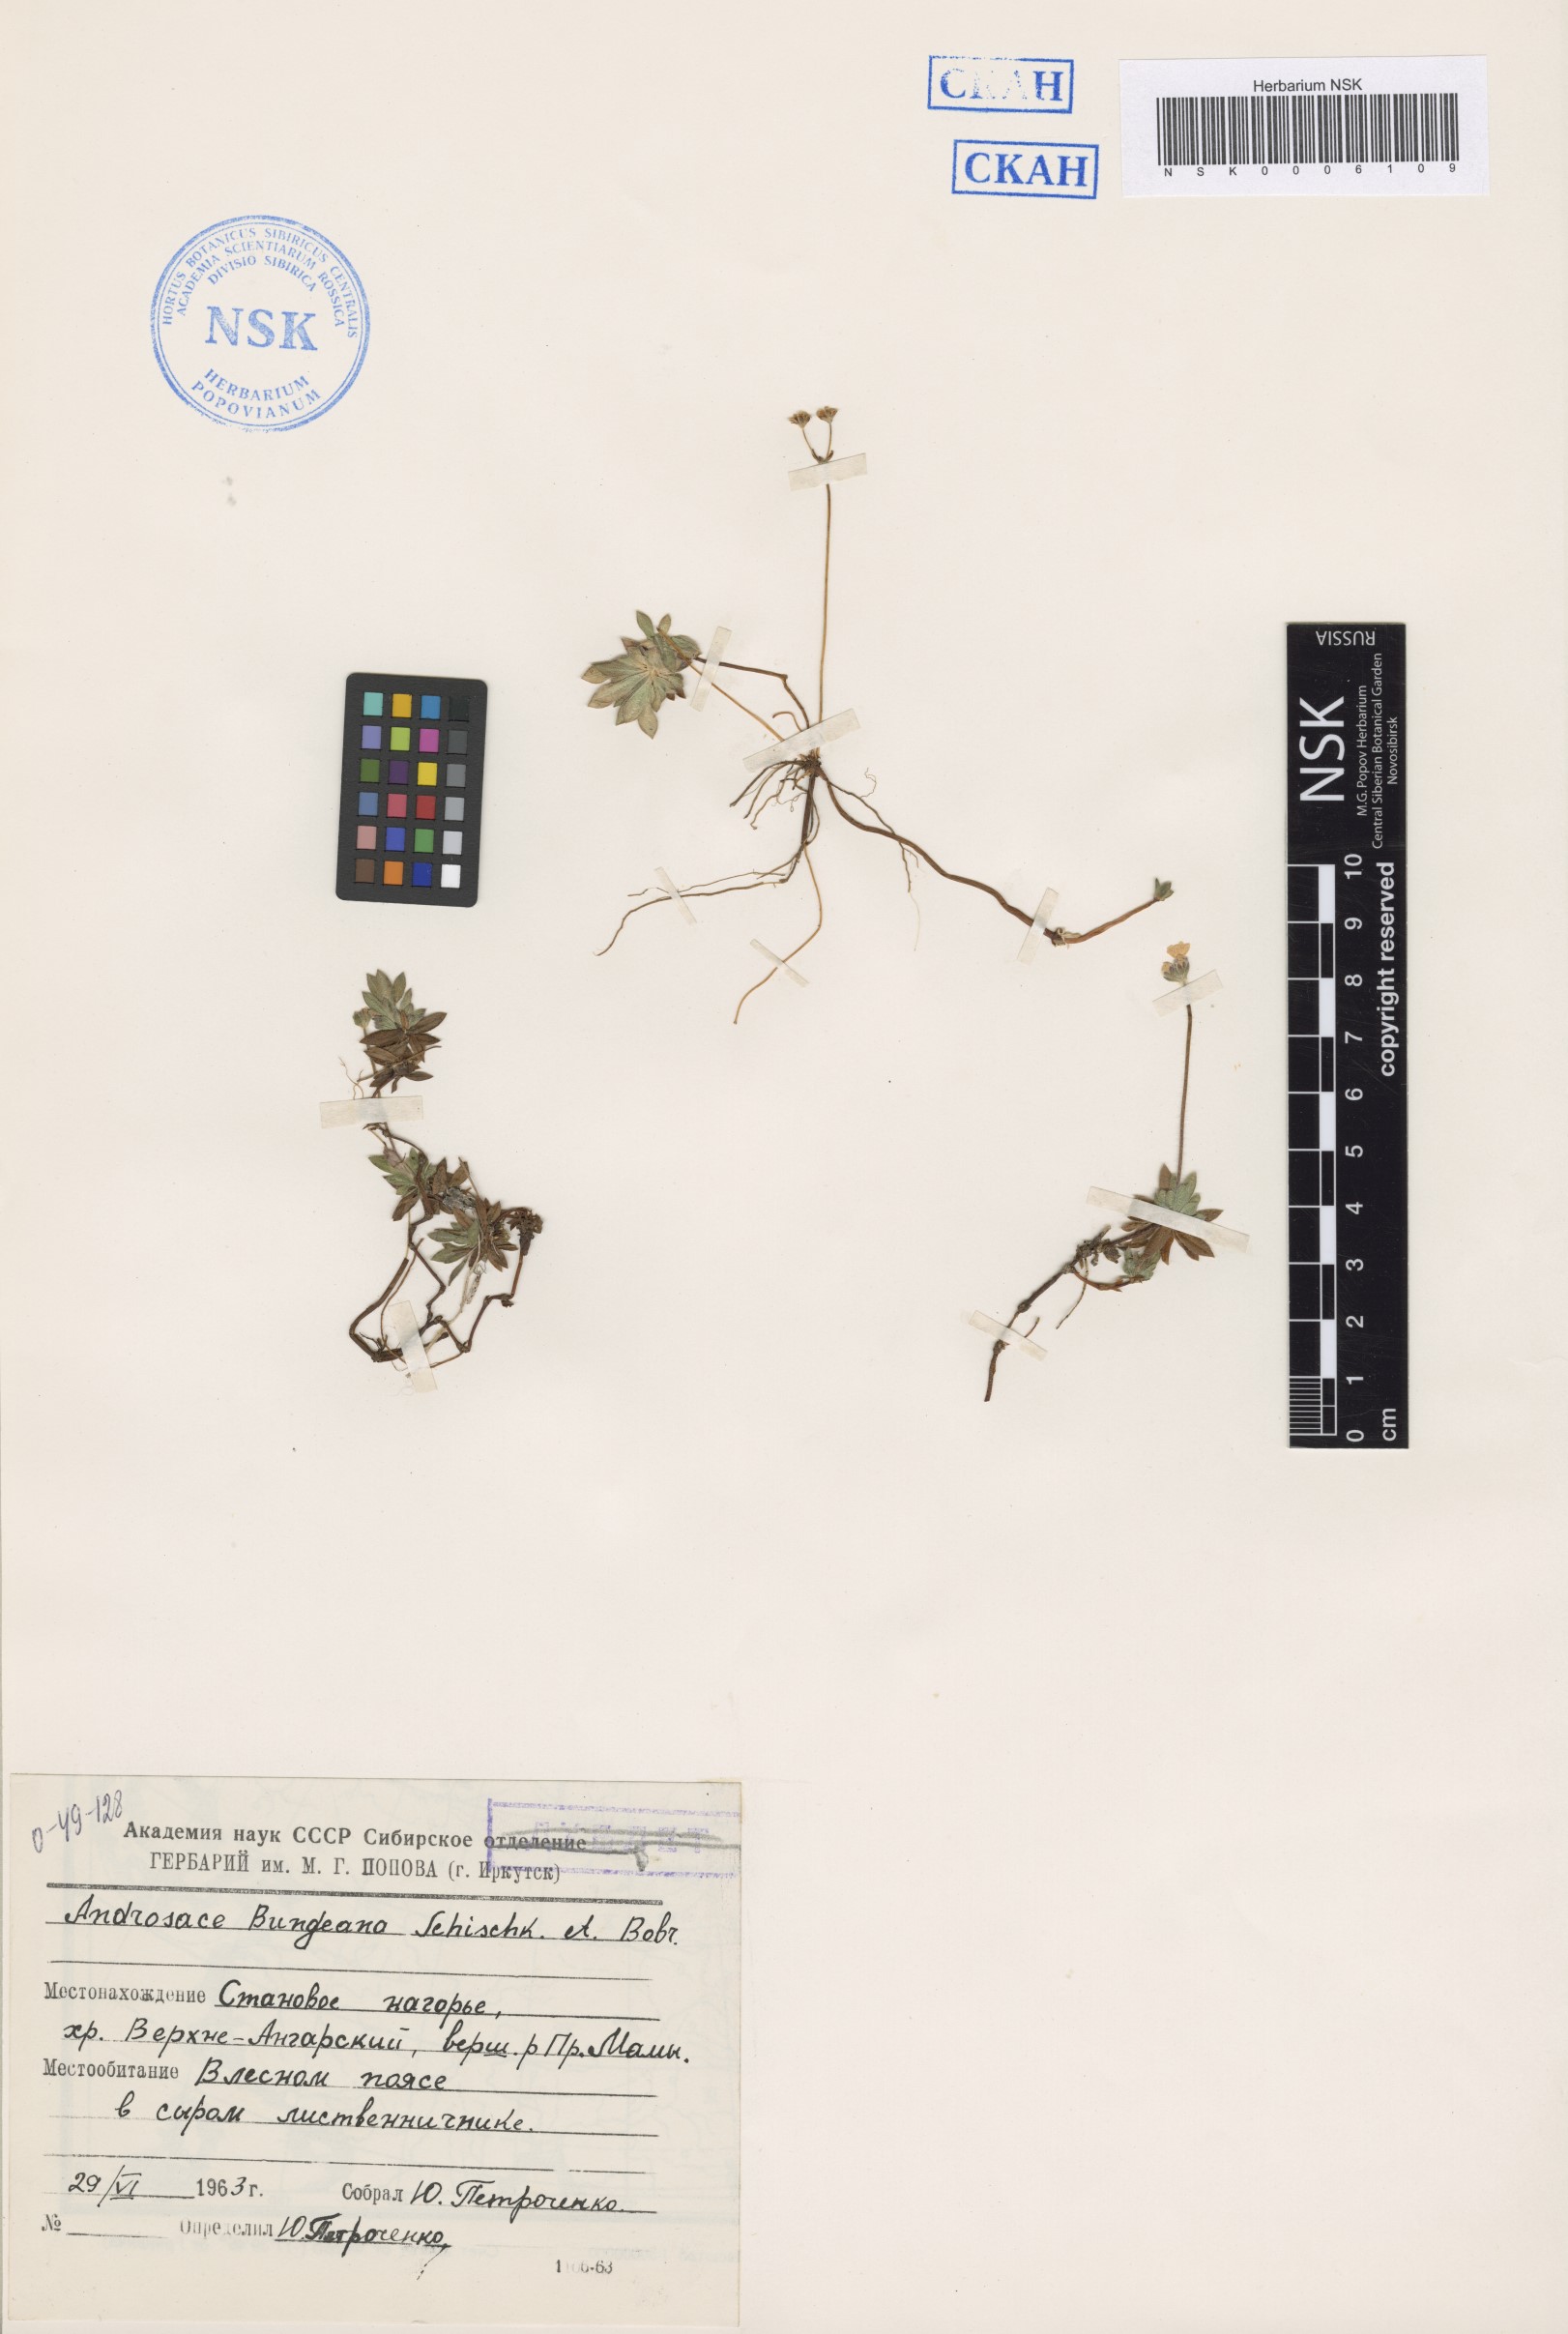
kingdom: Plantae
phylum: Tracheophyta
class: Magnoliopsida
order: Ericales
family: Primulaceae
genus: Androsace
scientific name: Androsace bungeana
